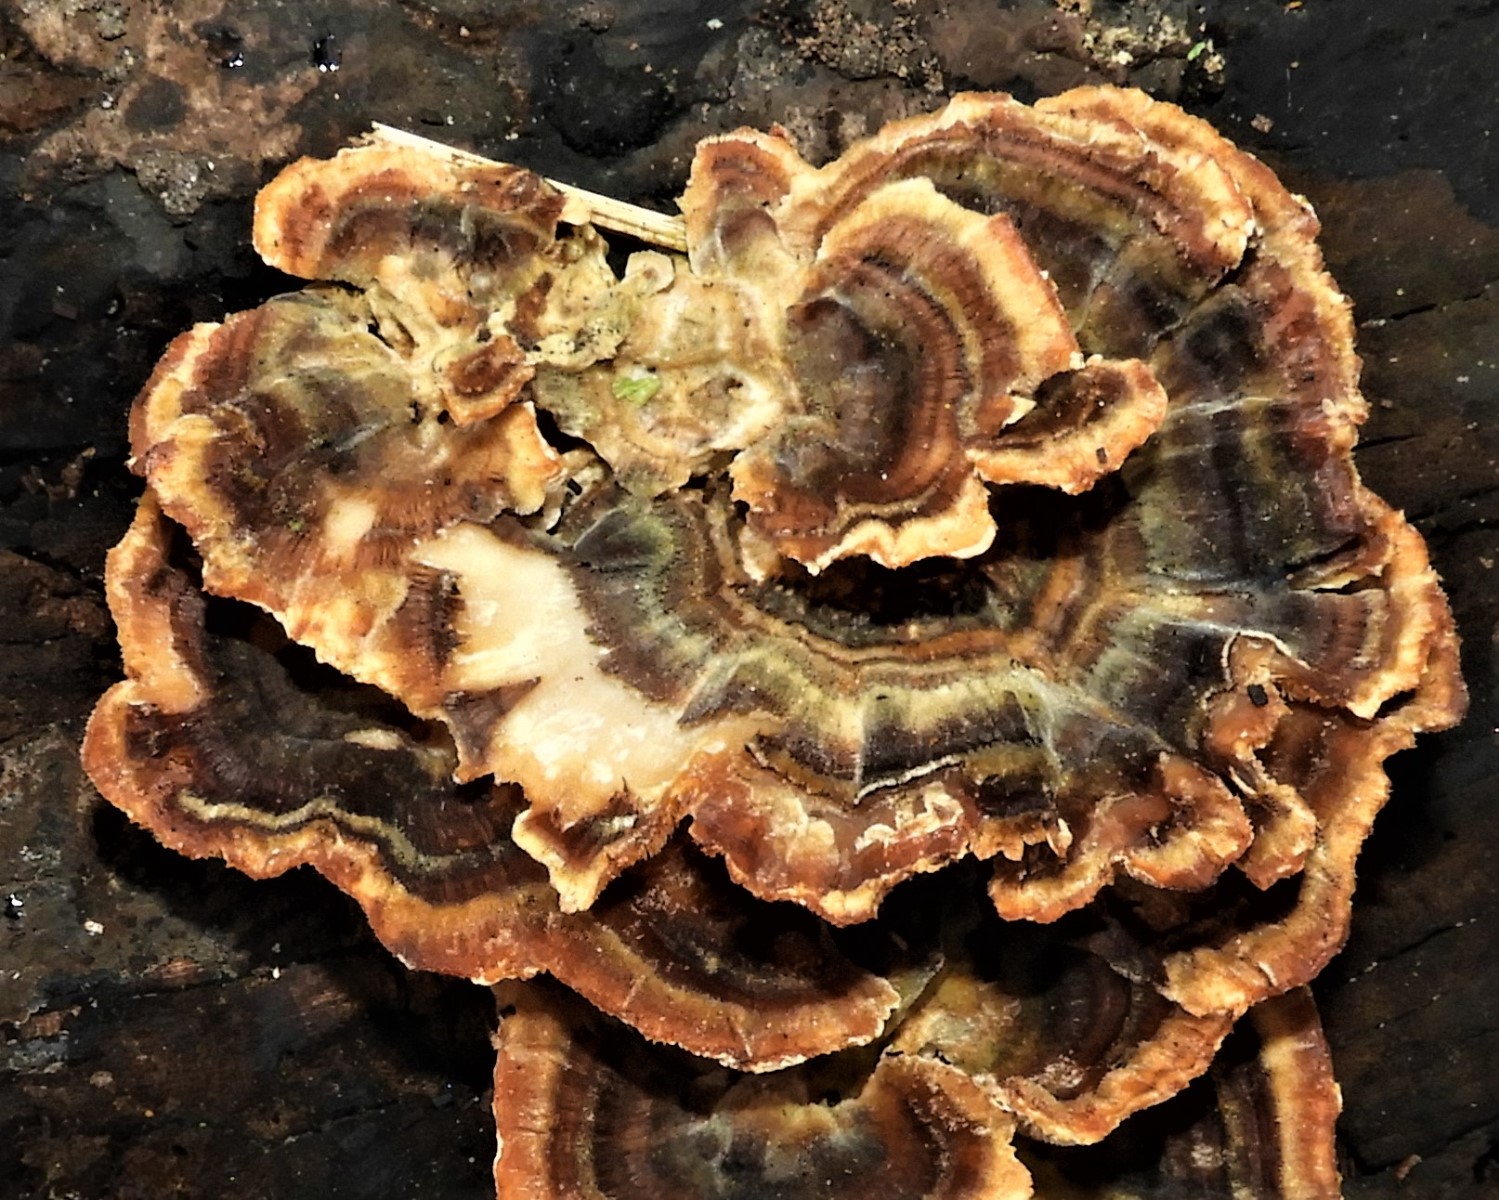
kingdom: Fungi
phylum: Basidiomycota
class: Agaricomycetes
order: Polyporales
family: Polyporaceae
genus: Trametes
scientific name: Trametes versicolor
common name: broget læderporesvamp
